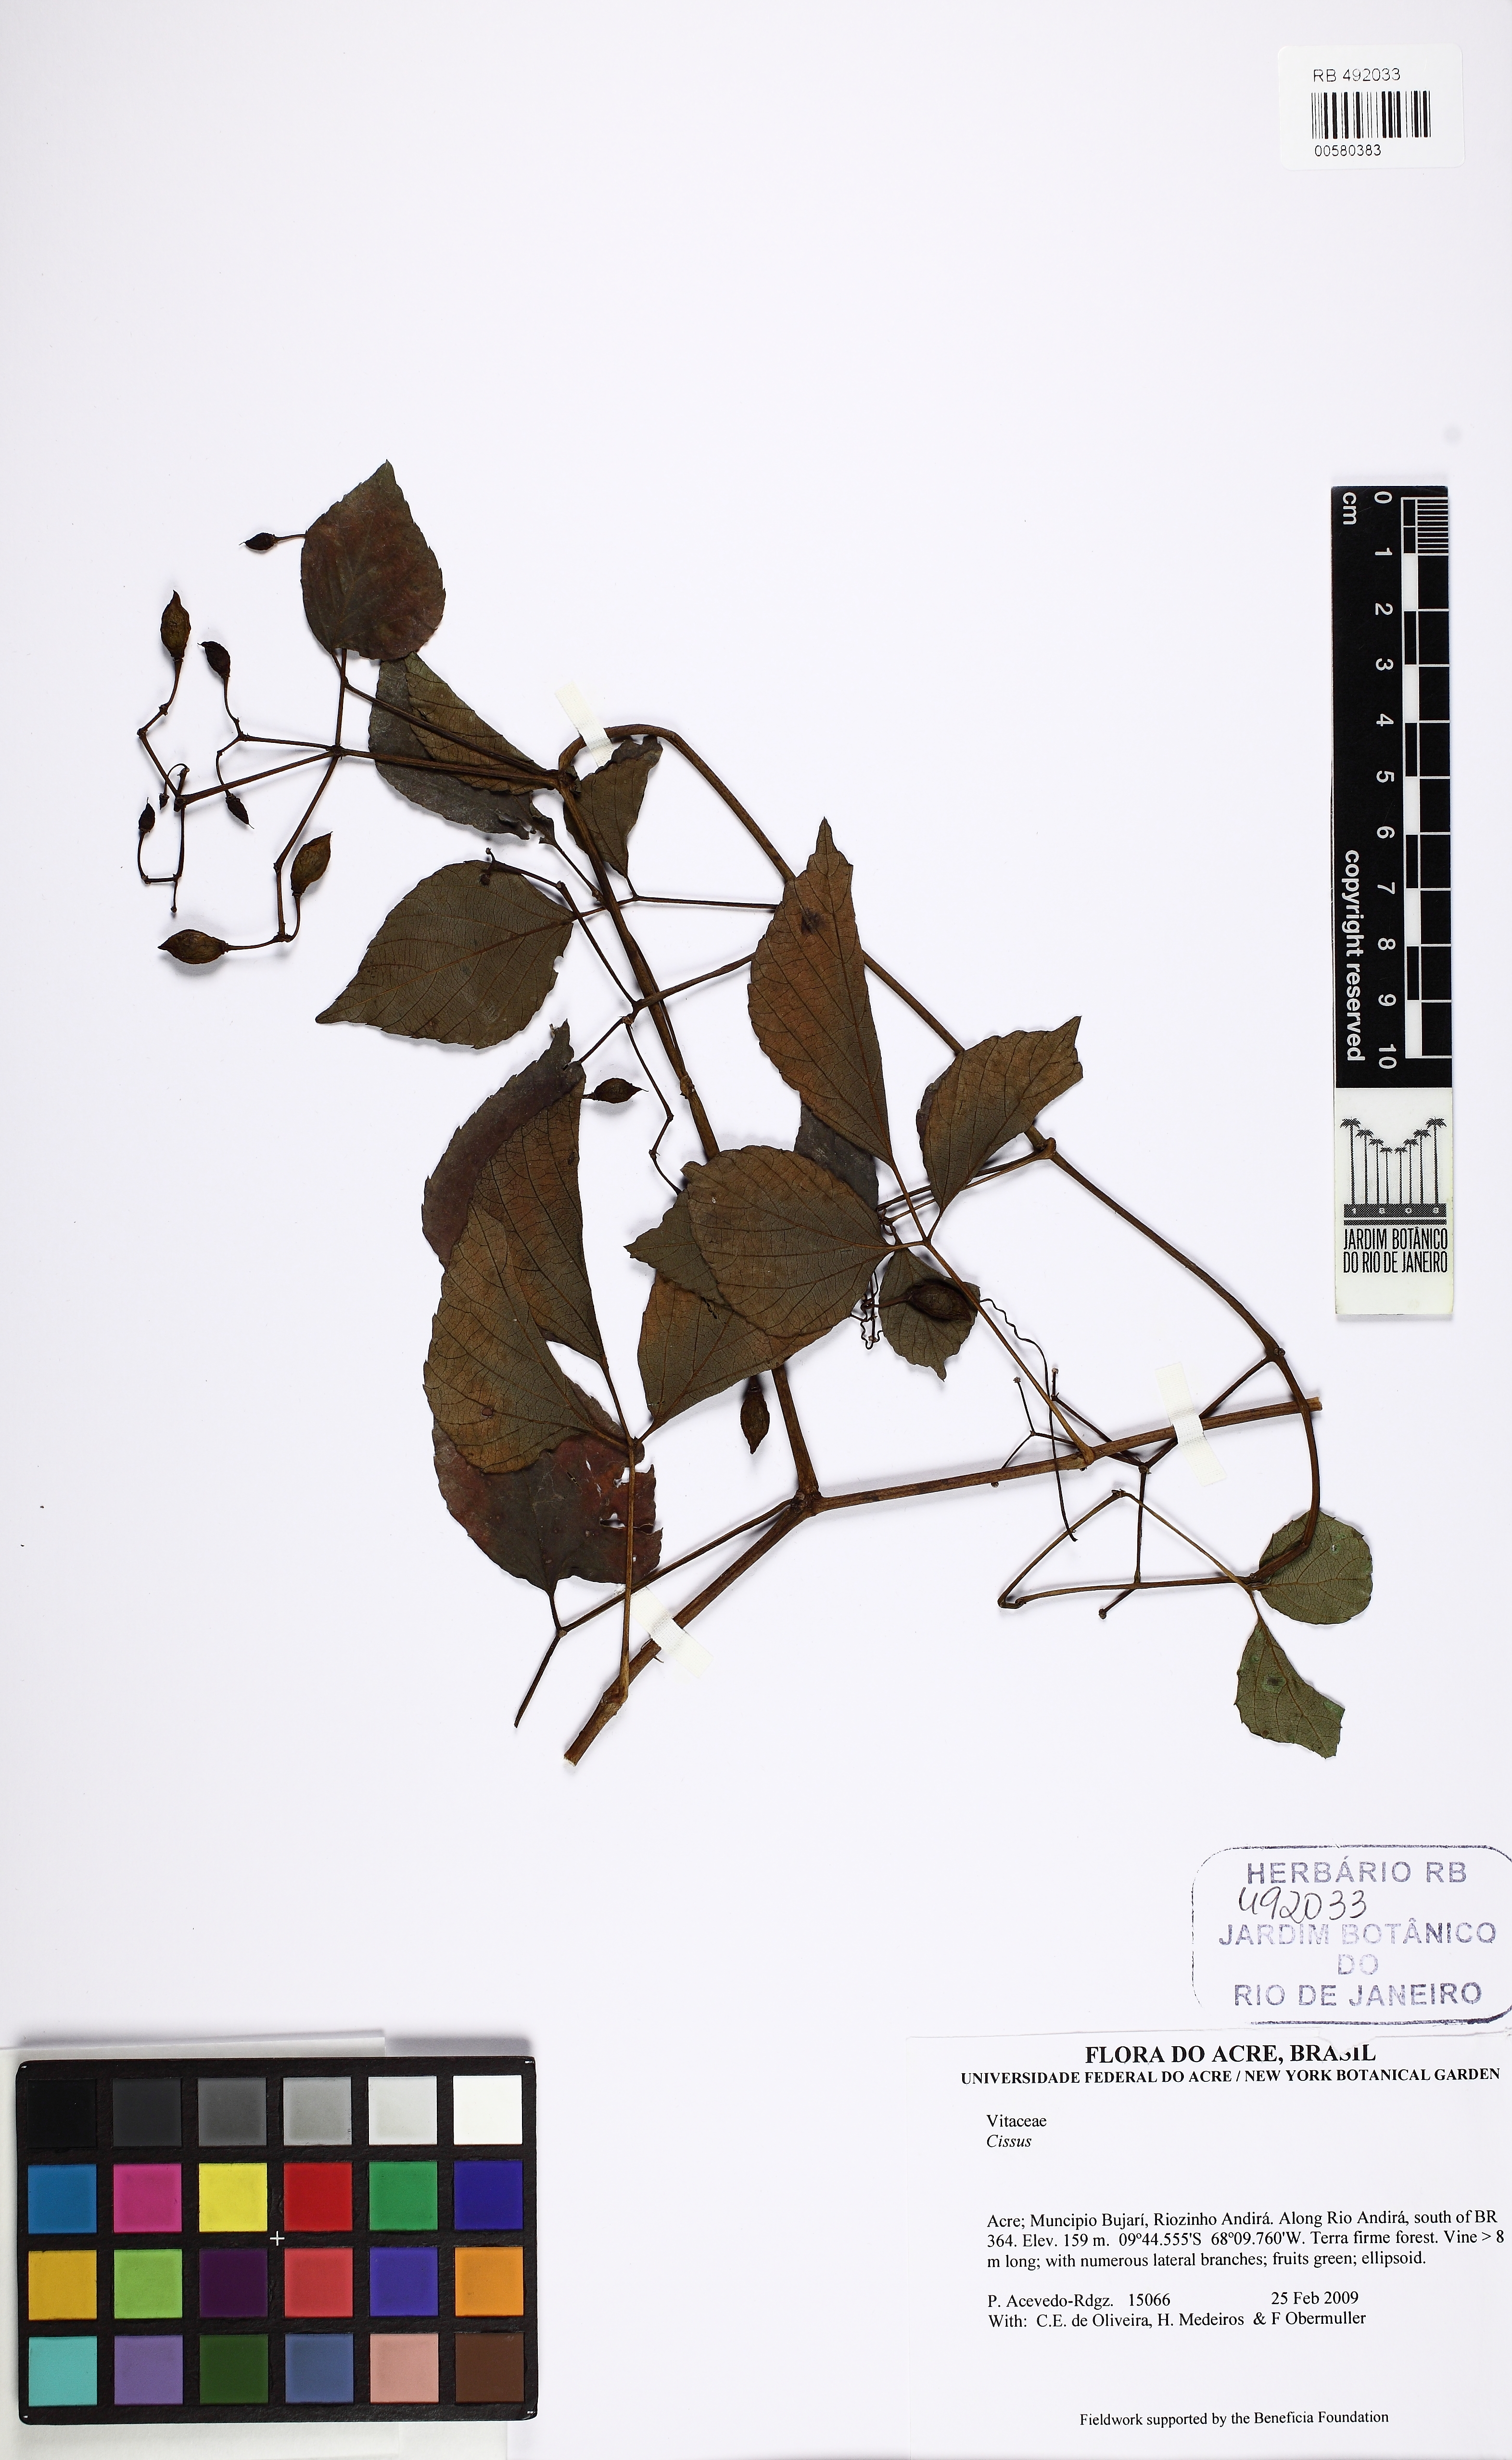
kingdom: Plantae
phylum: Tracheophyta
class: Magnoliopsida
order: Vitales
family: Vitaceae
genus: Cissus
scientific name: Cissus
